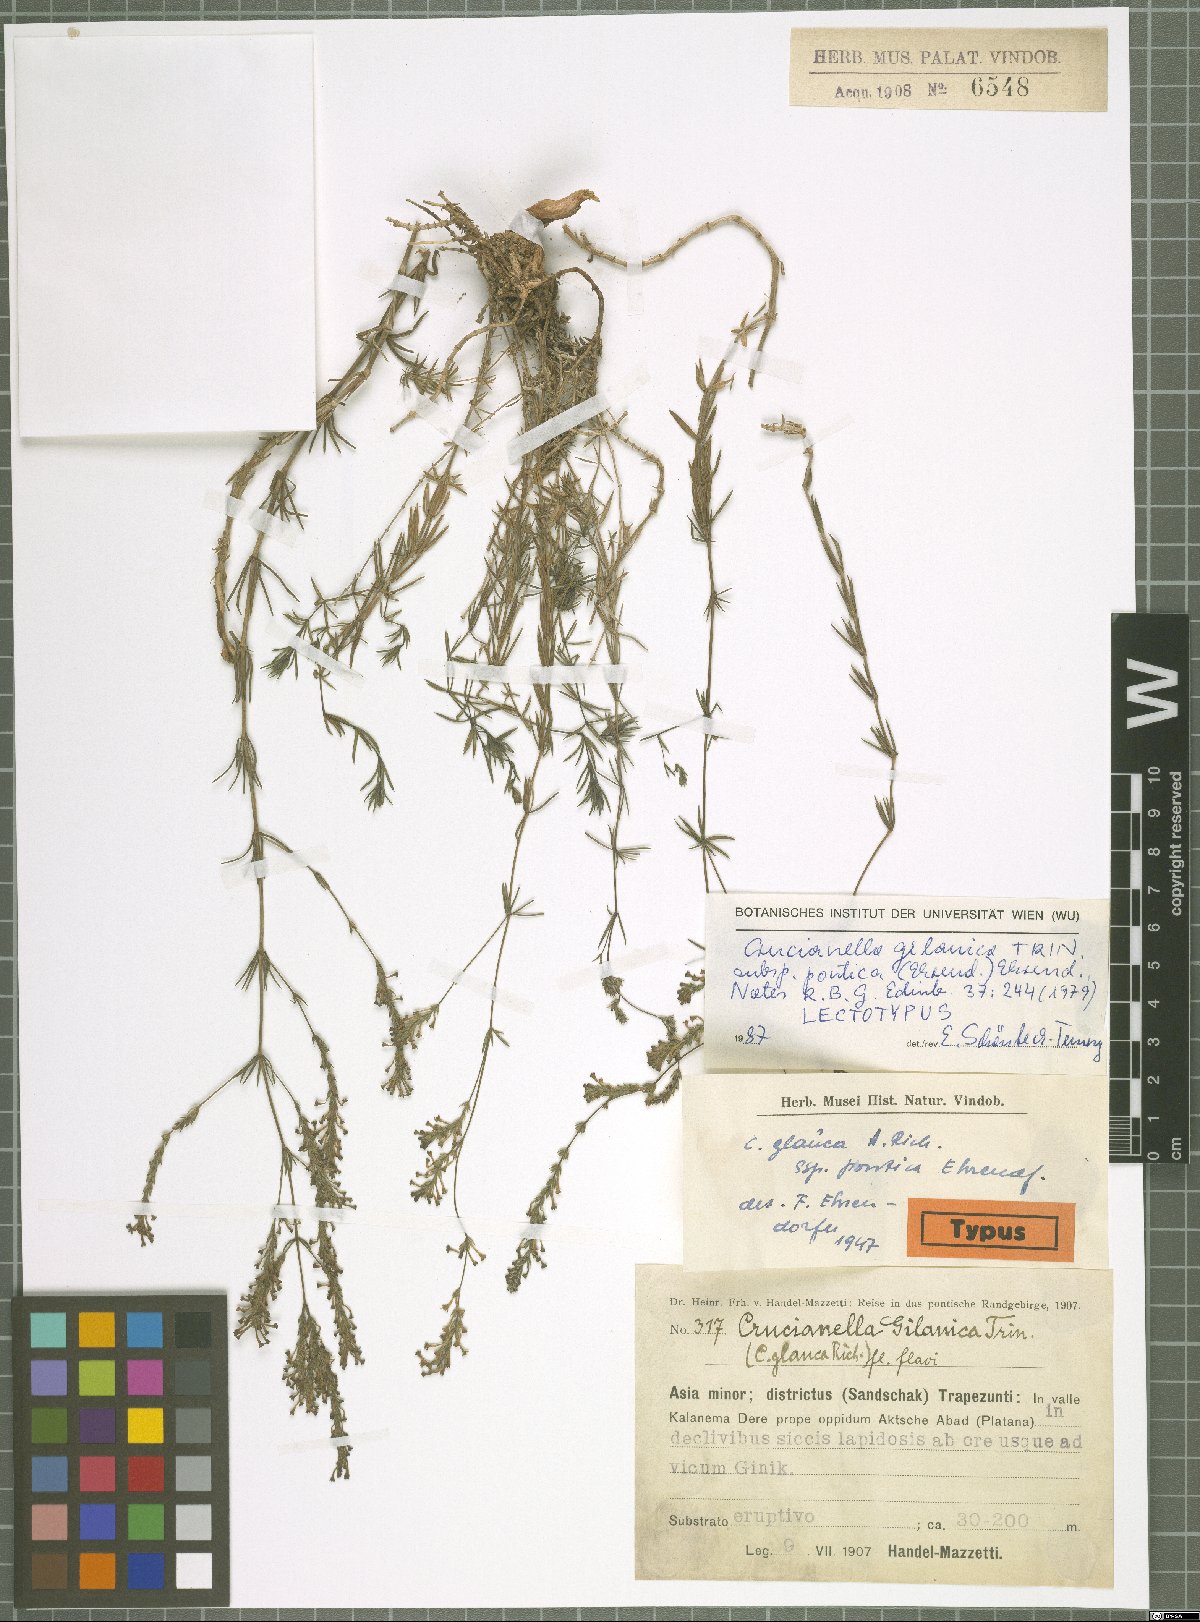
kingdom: Plantae
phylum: Tracheophyta
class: Magnoliopsida
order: Gentianales
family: Rubiaceae
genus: Crucianella
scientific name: Crucianella gilanica
